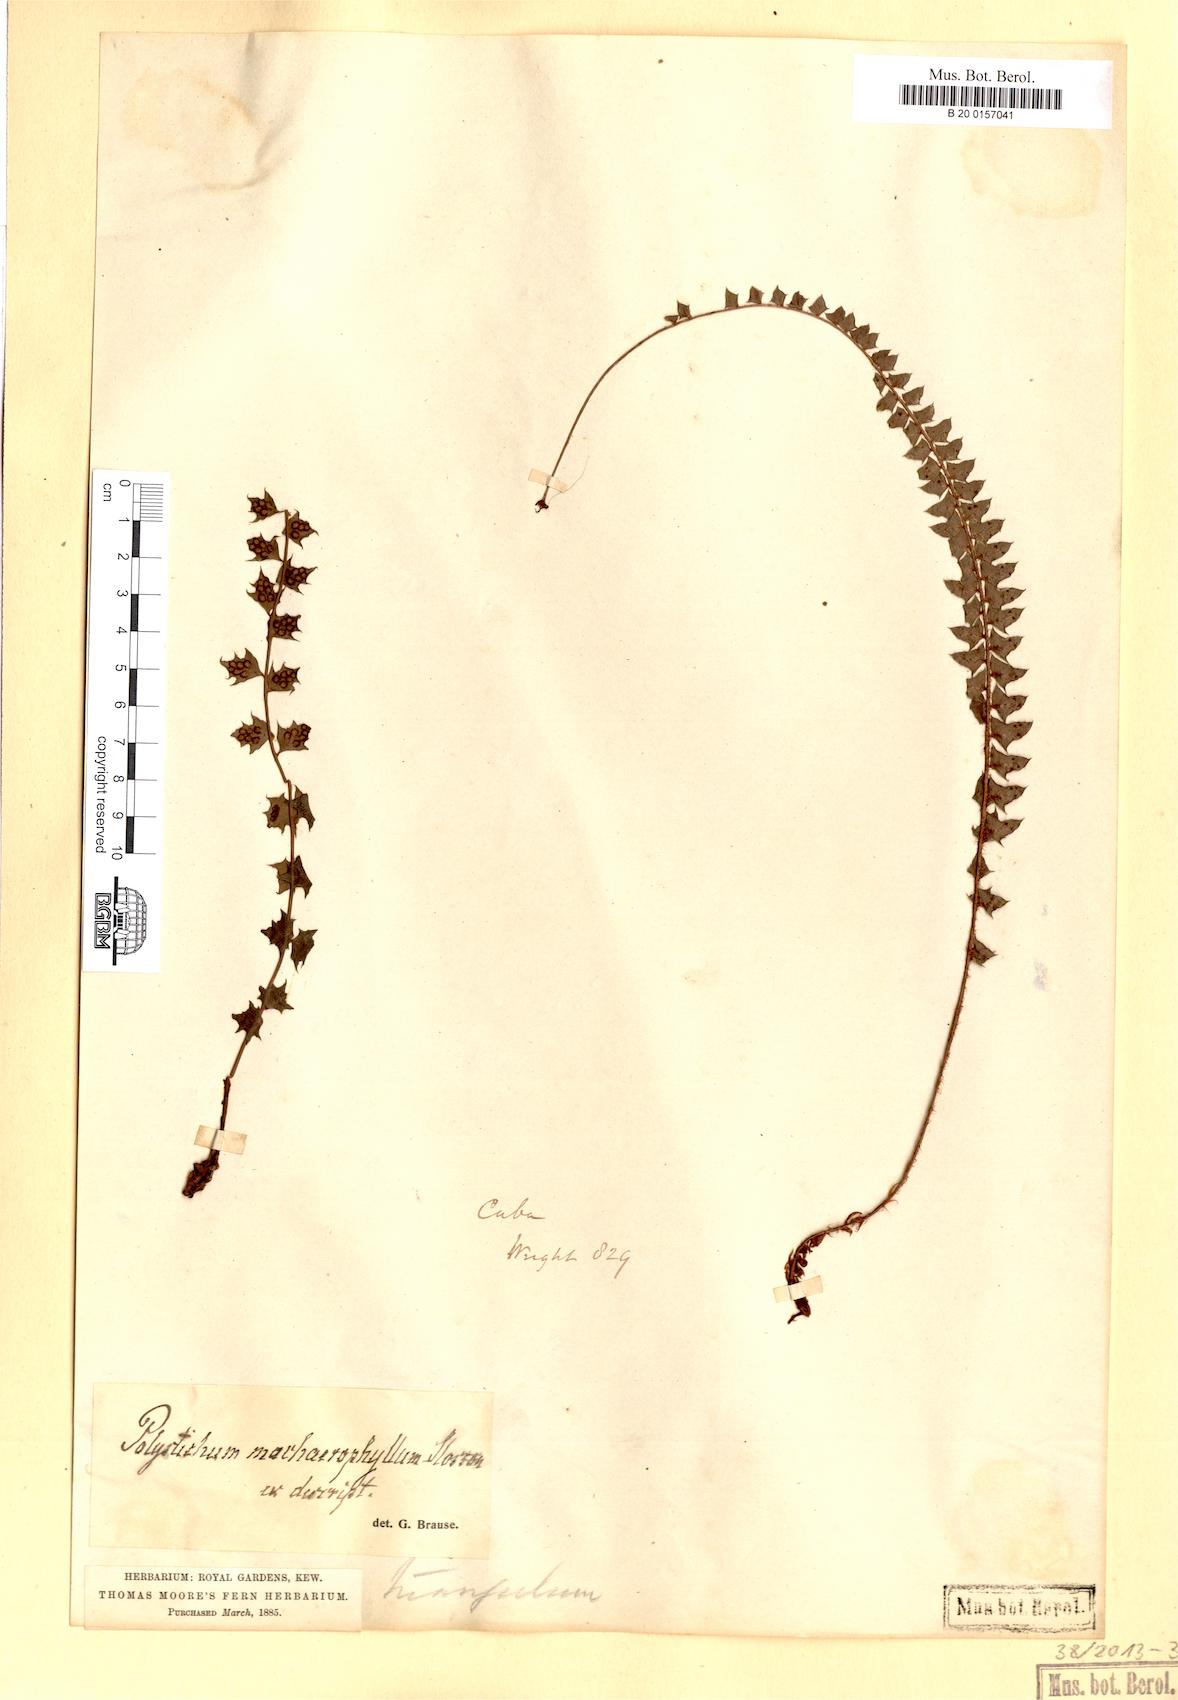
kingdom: Plantae
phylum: Tracheophyta
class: Polypodiopsida
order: Polypodiales
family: Dryopteridaceae
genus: Polystichum
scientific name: Polystichum machaerophyllum
